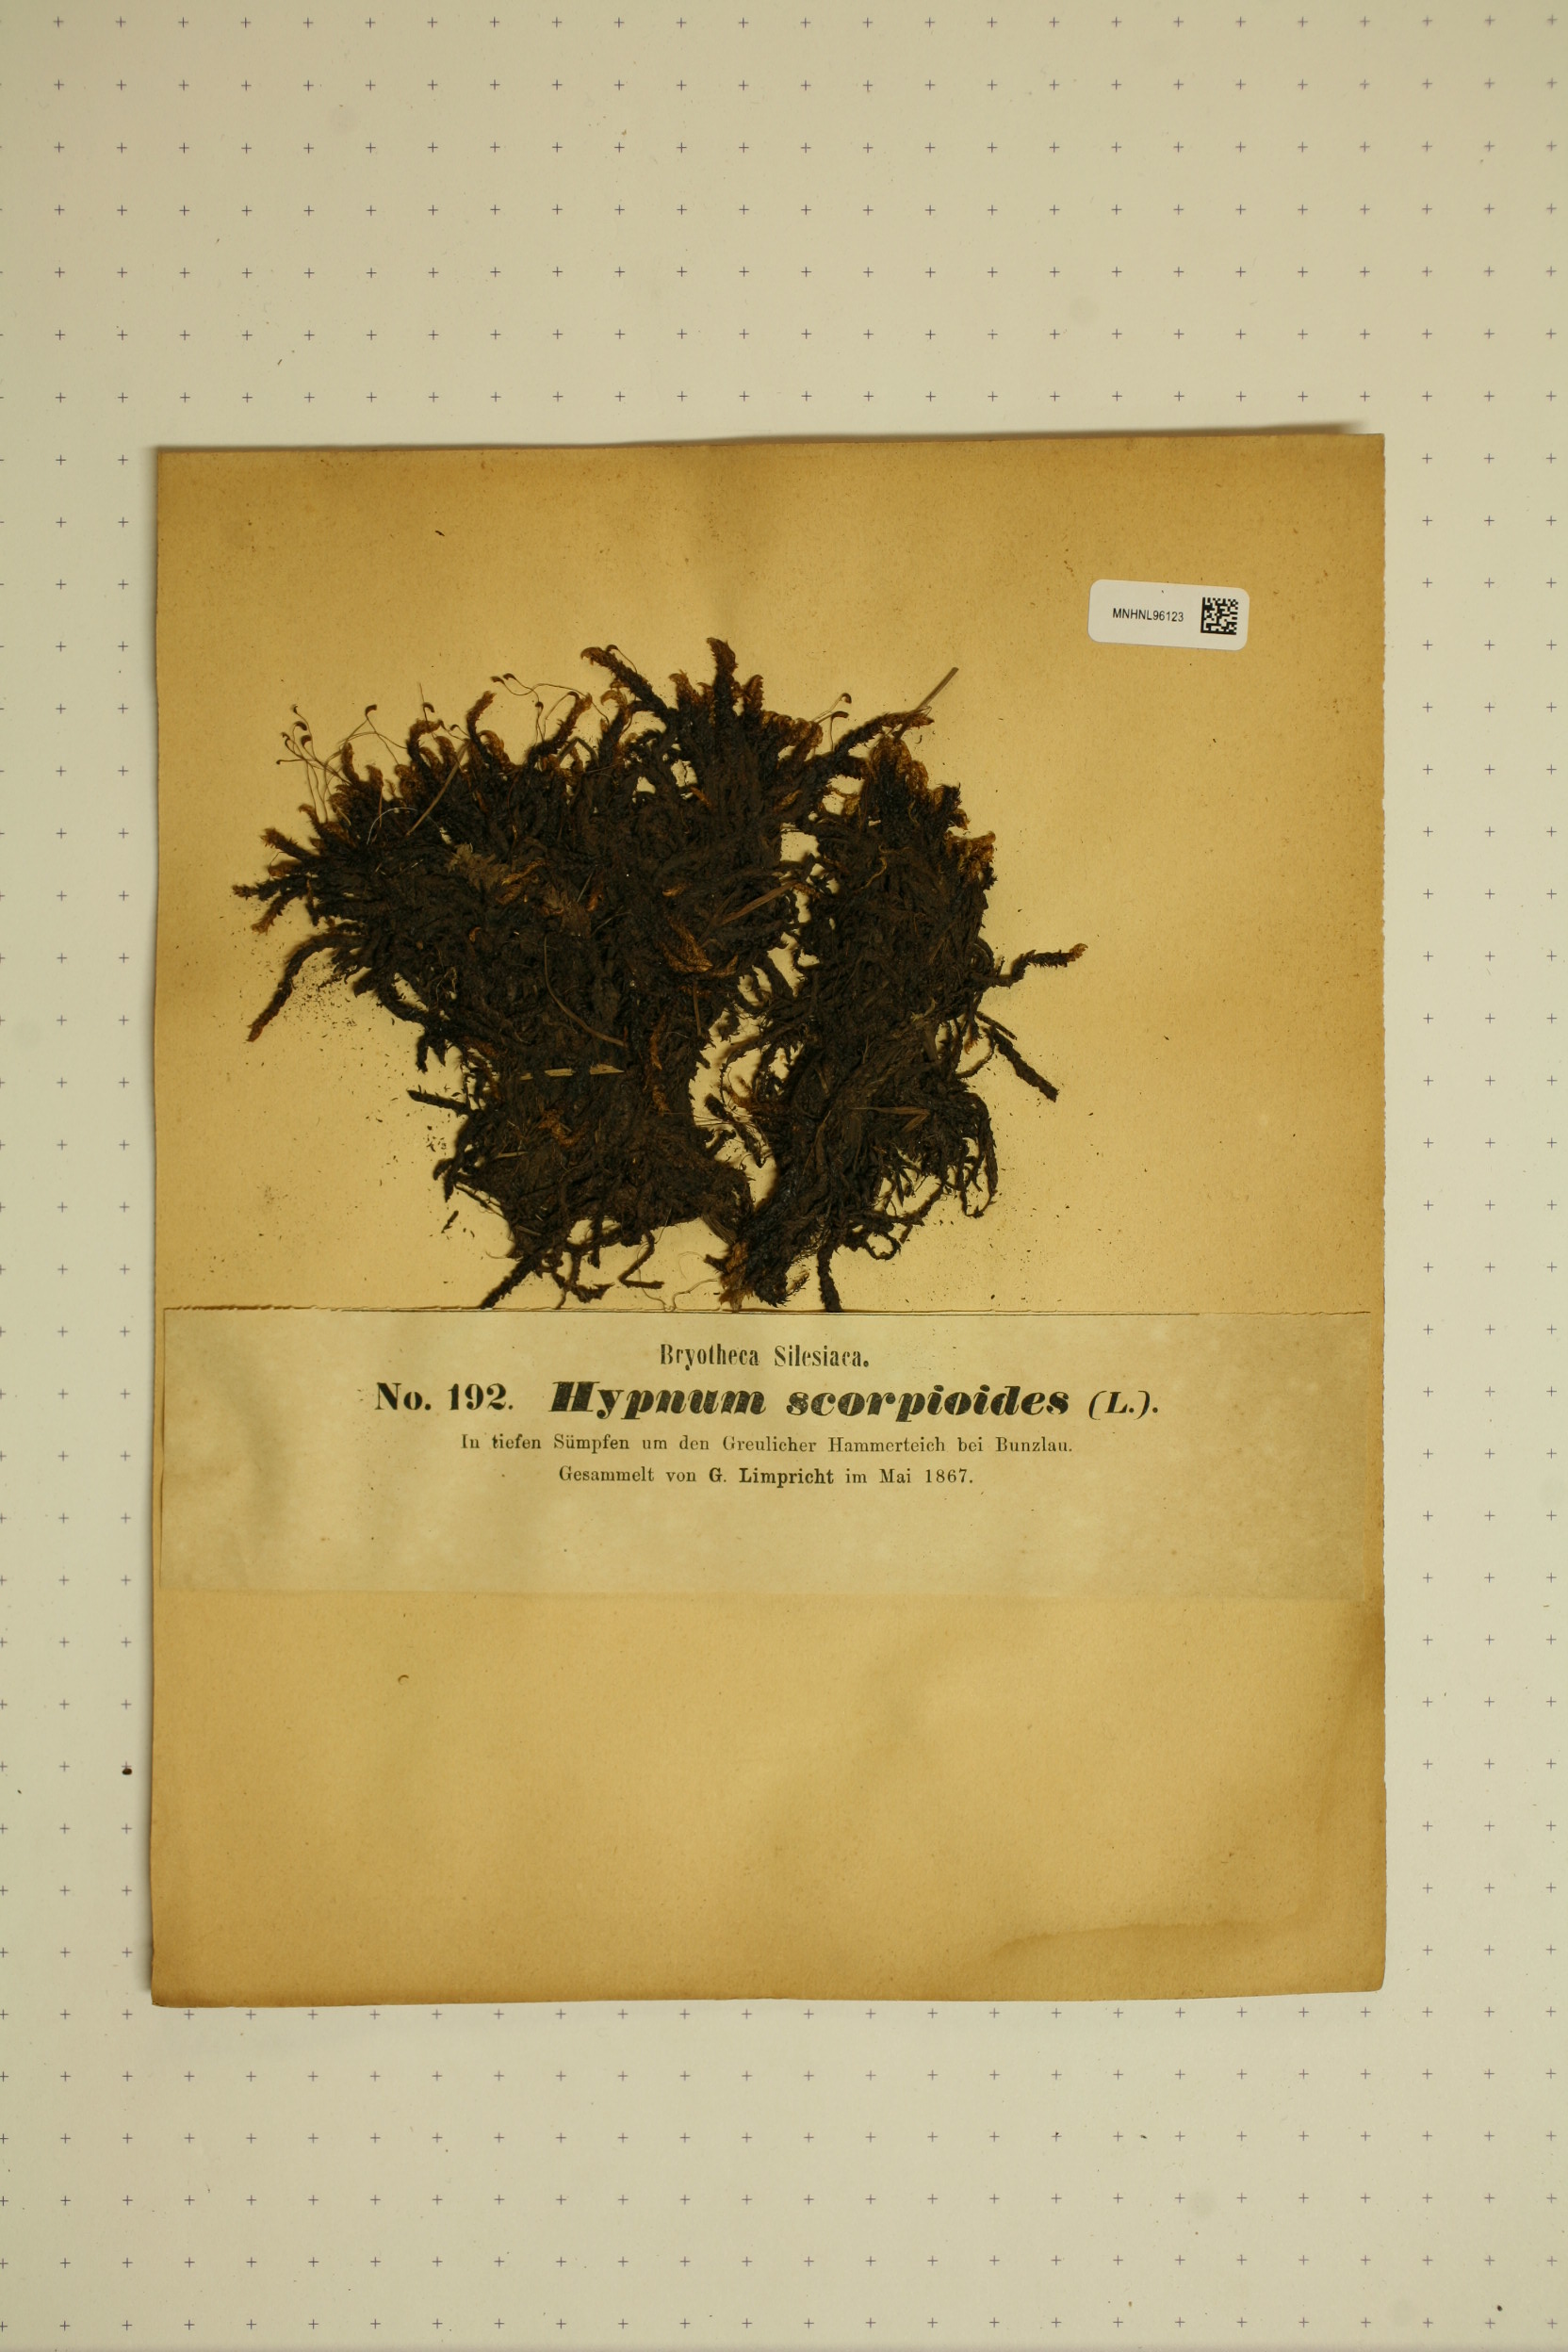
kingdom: Plantae
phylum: Bryophyta
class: Bryopsida
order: Hypnales
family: Scorpidiaceae
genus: Scorpidium
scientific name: Scorpidium scorpioides
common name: Hooked scorpion moss
